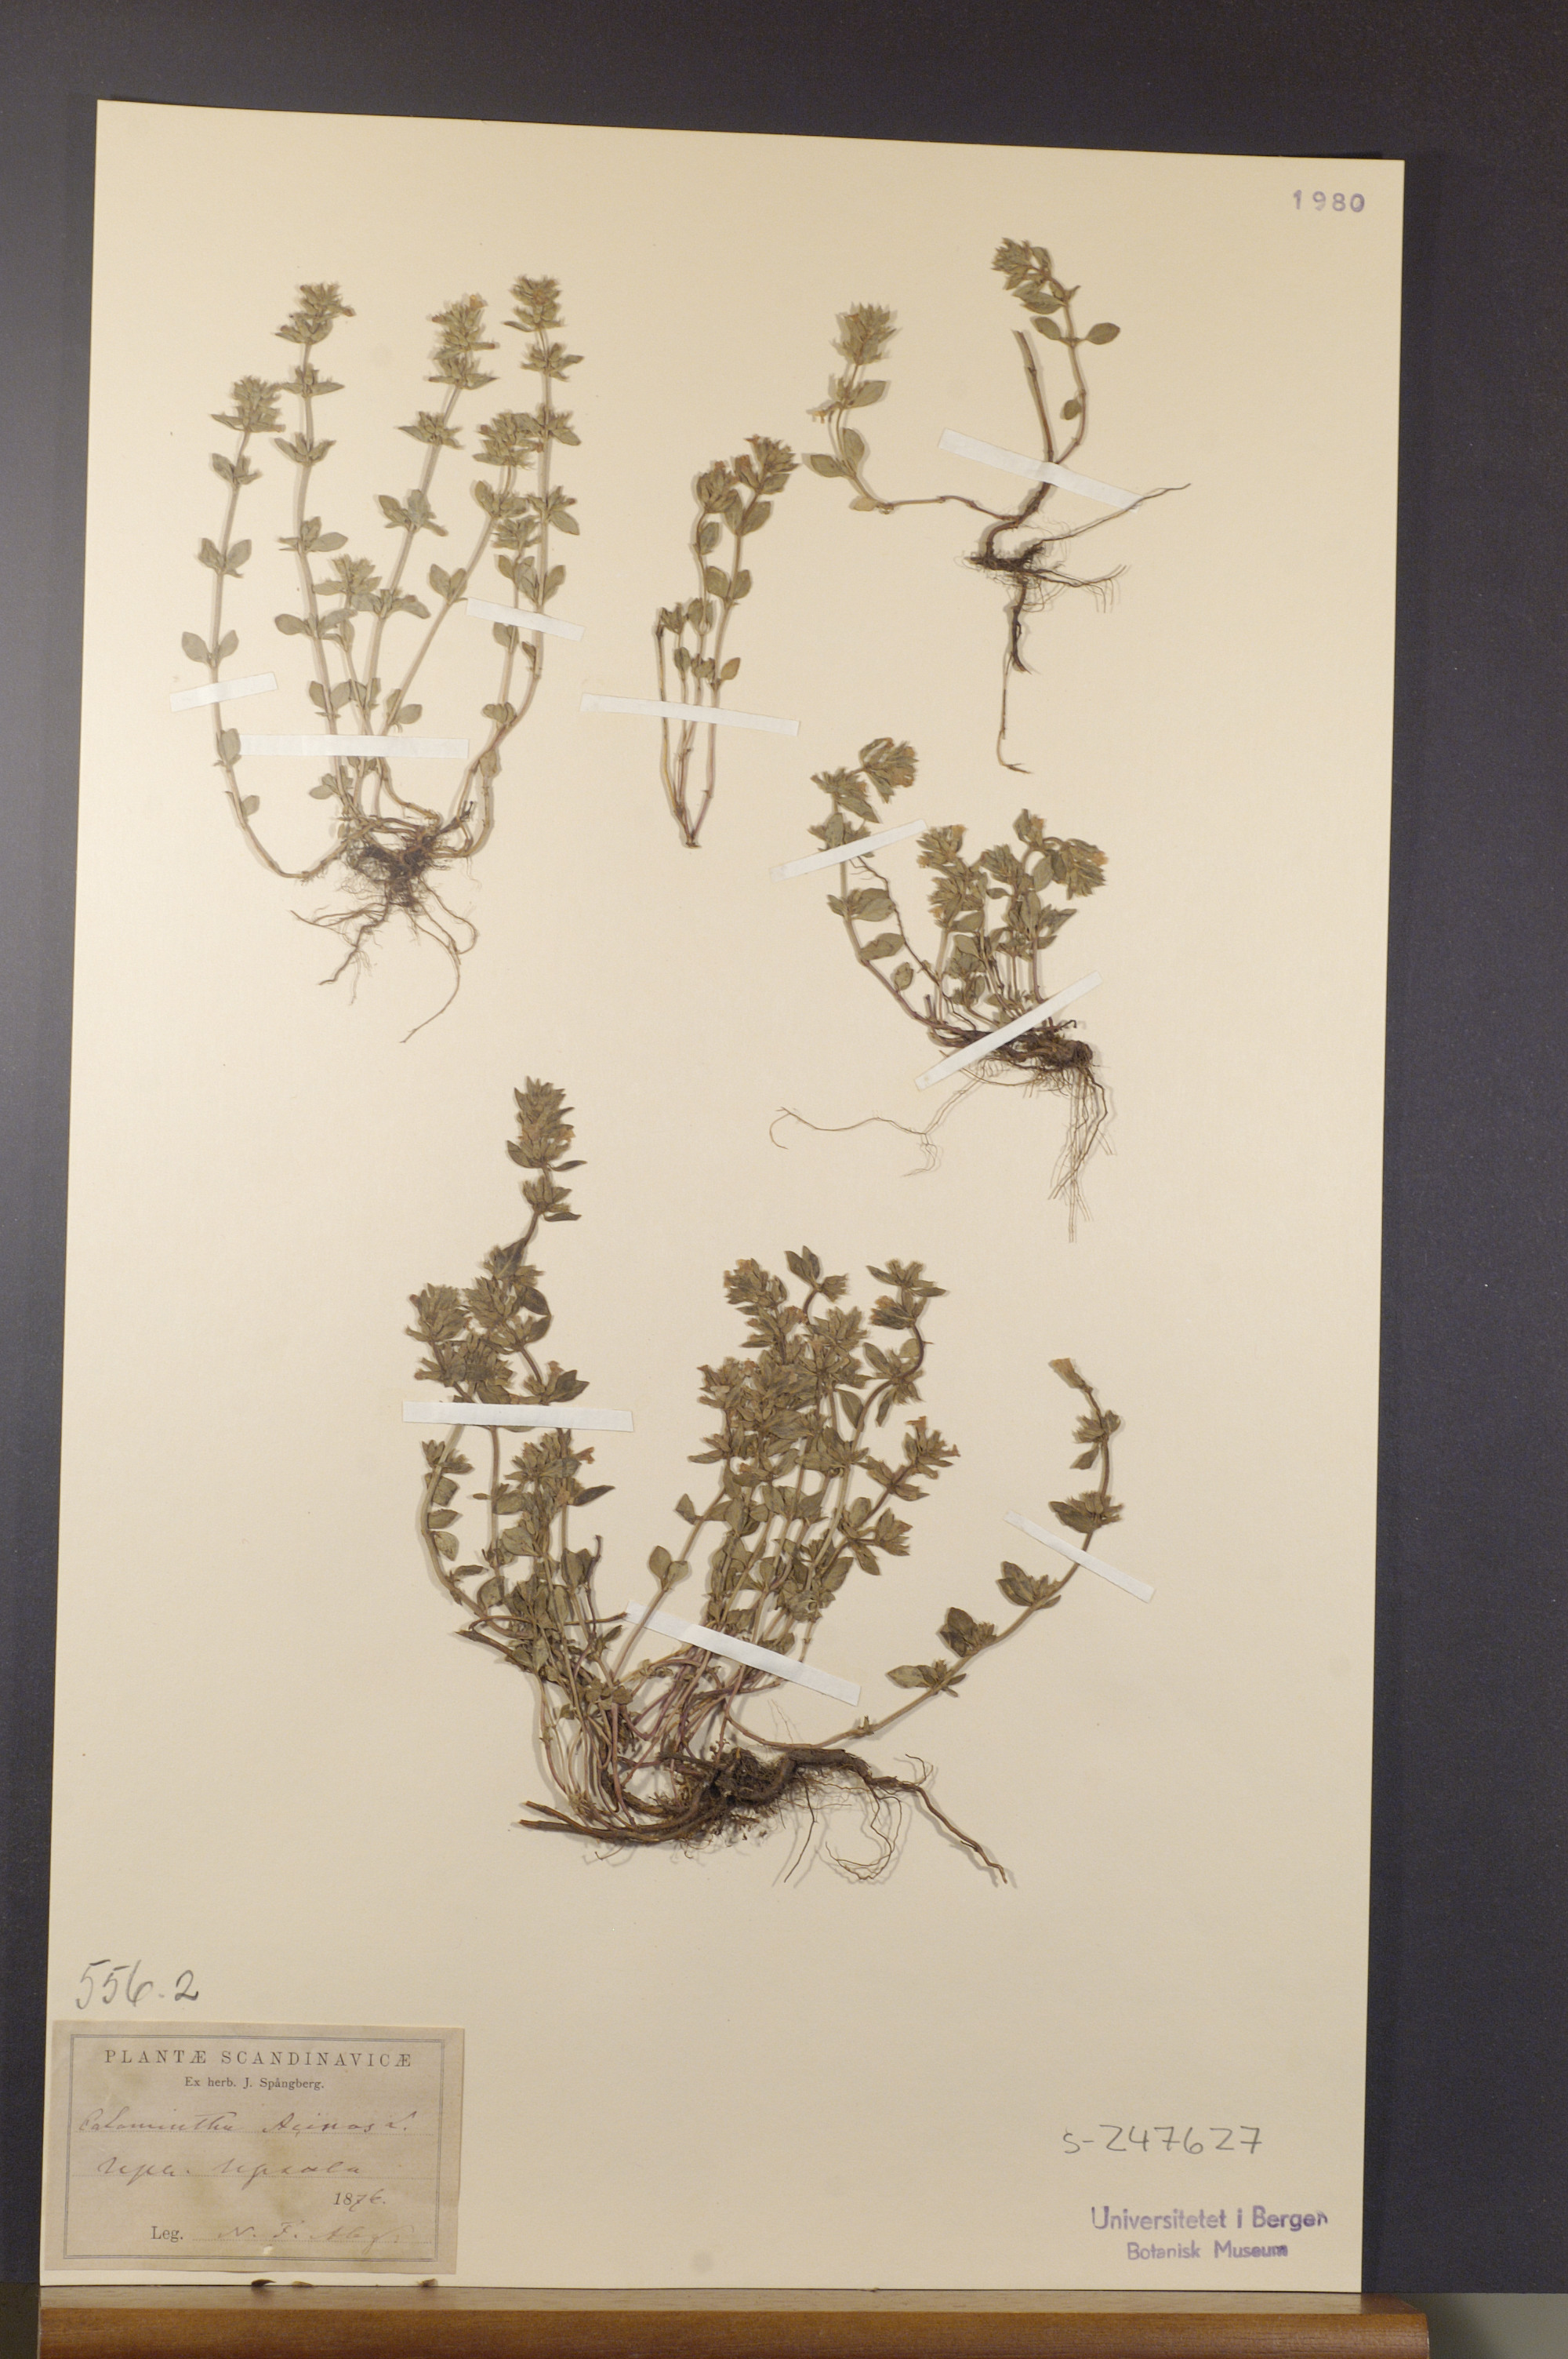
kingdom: Plantae
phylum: Tracheophyta
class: Magnoliopsida
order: Lamiales
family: Lamiaceae
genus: Clinopodium
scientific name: Clinopodium acinos
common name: Basil thyme
